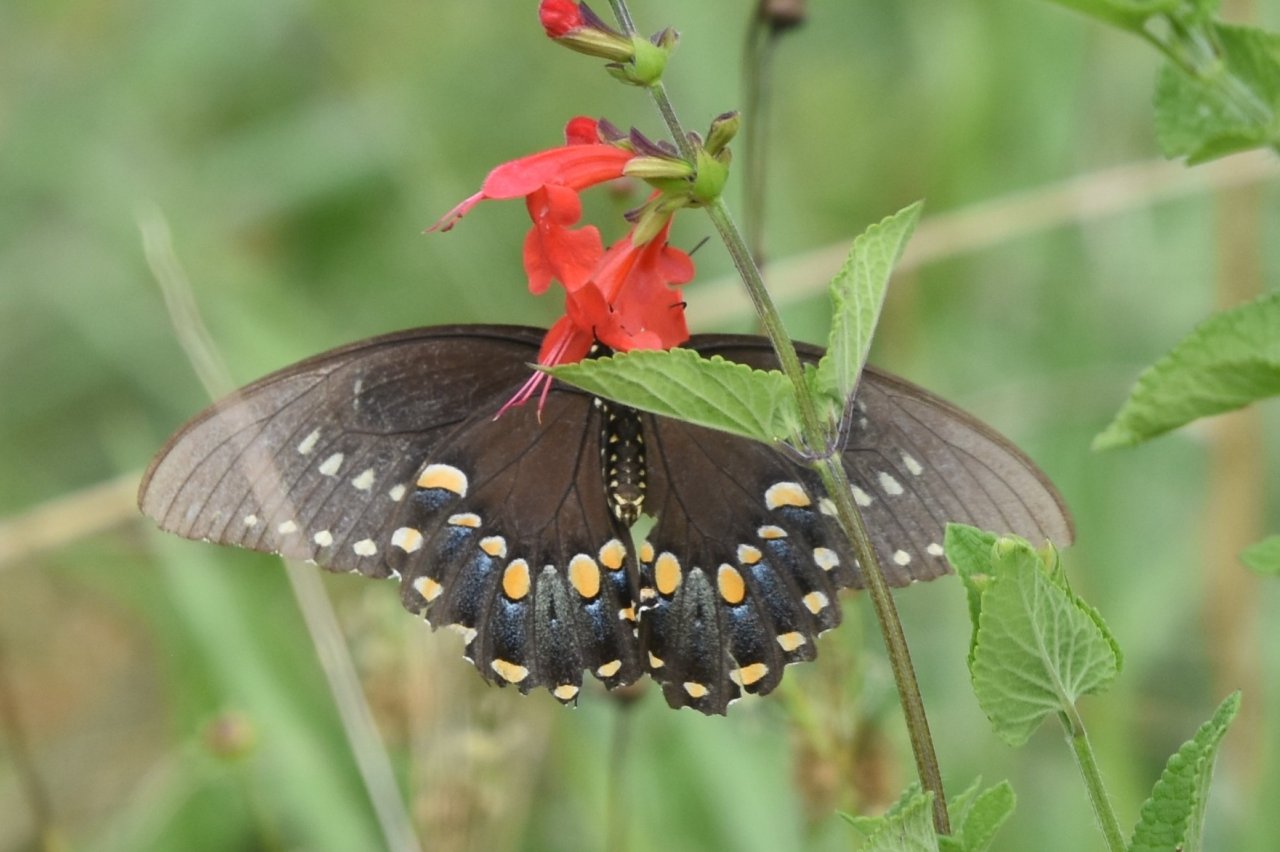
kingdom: Animalia
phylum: Arthropoda
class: Insecta
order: Lepidoptera
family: Papilionidae
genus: Pterourus
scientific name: Pterourus troilus
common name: Spicebush Swallowtail
